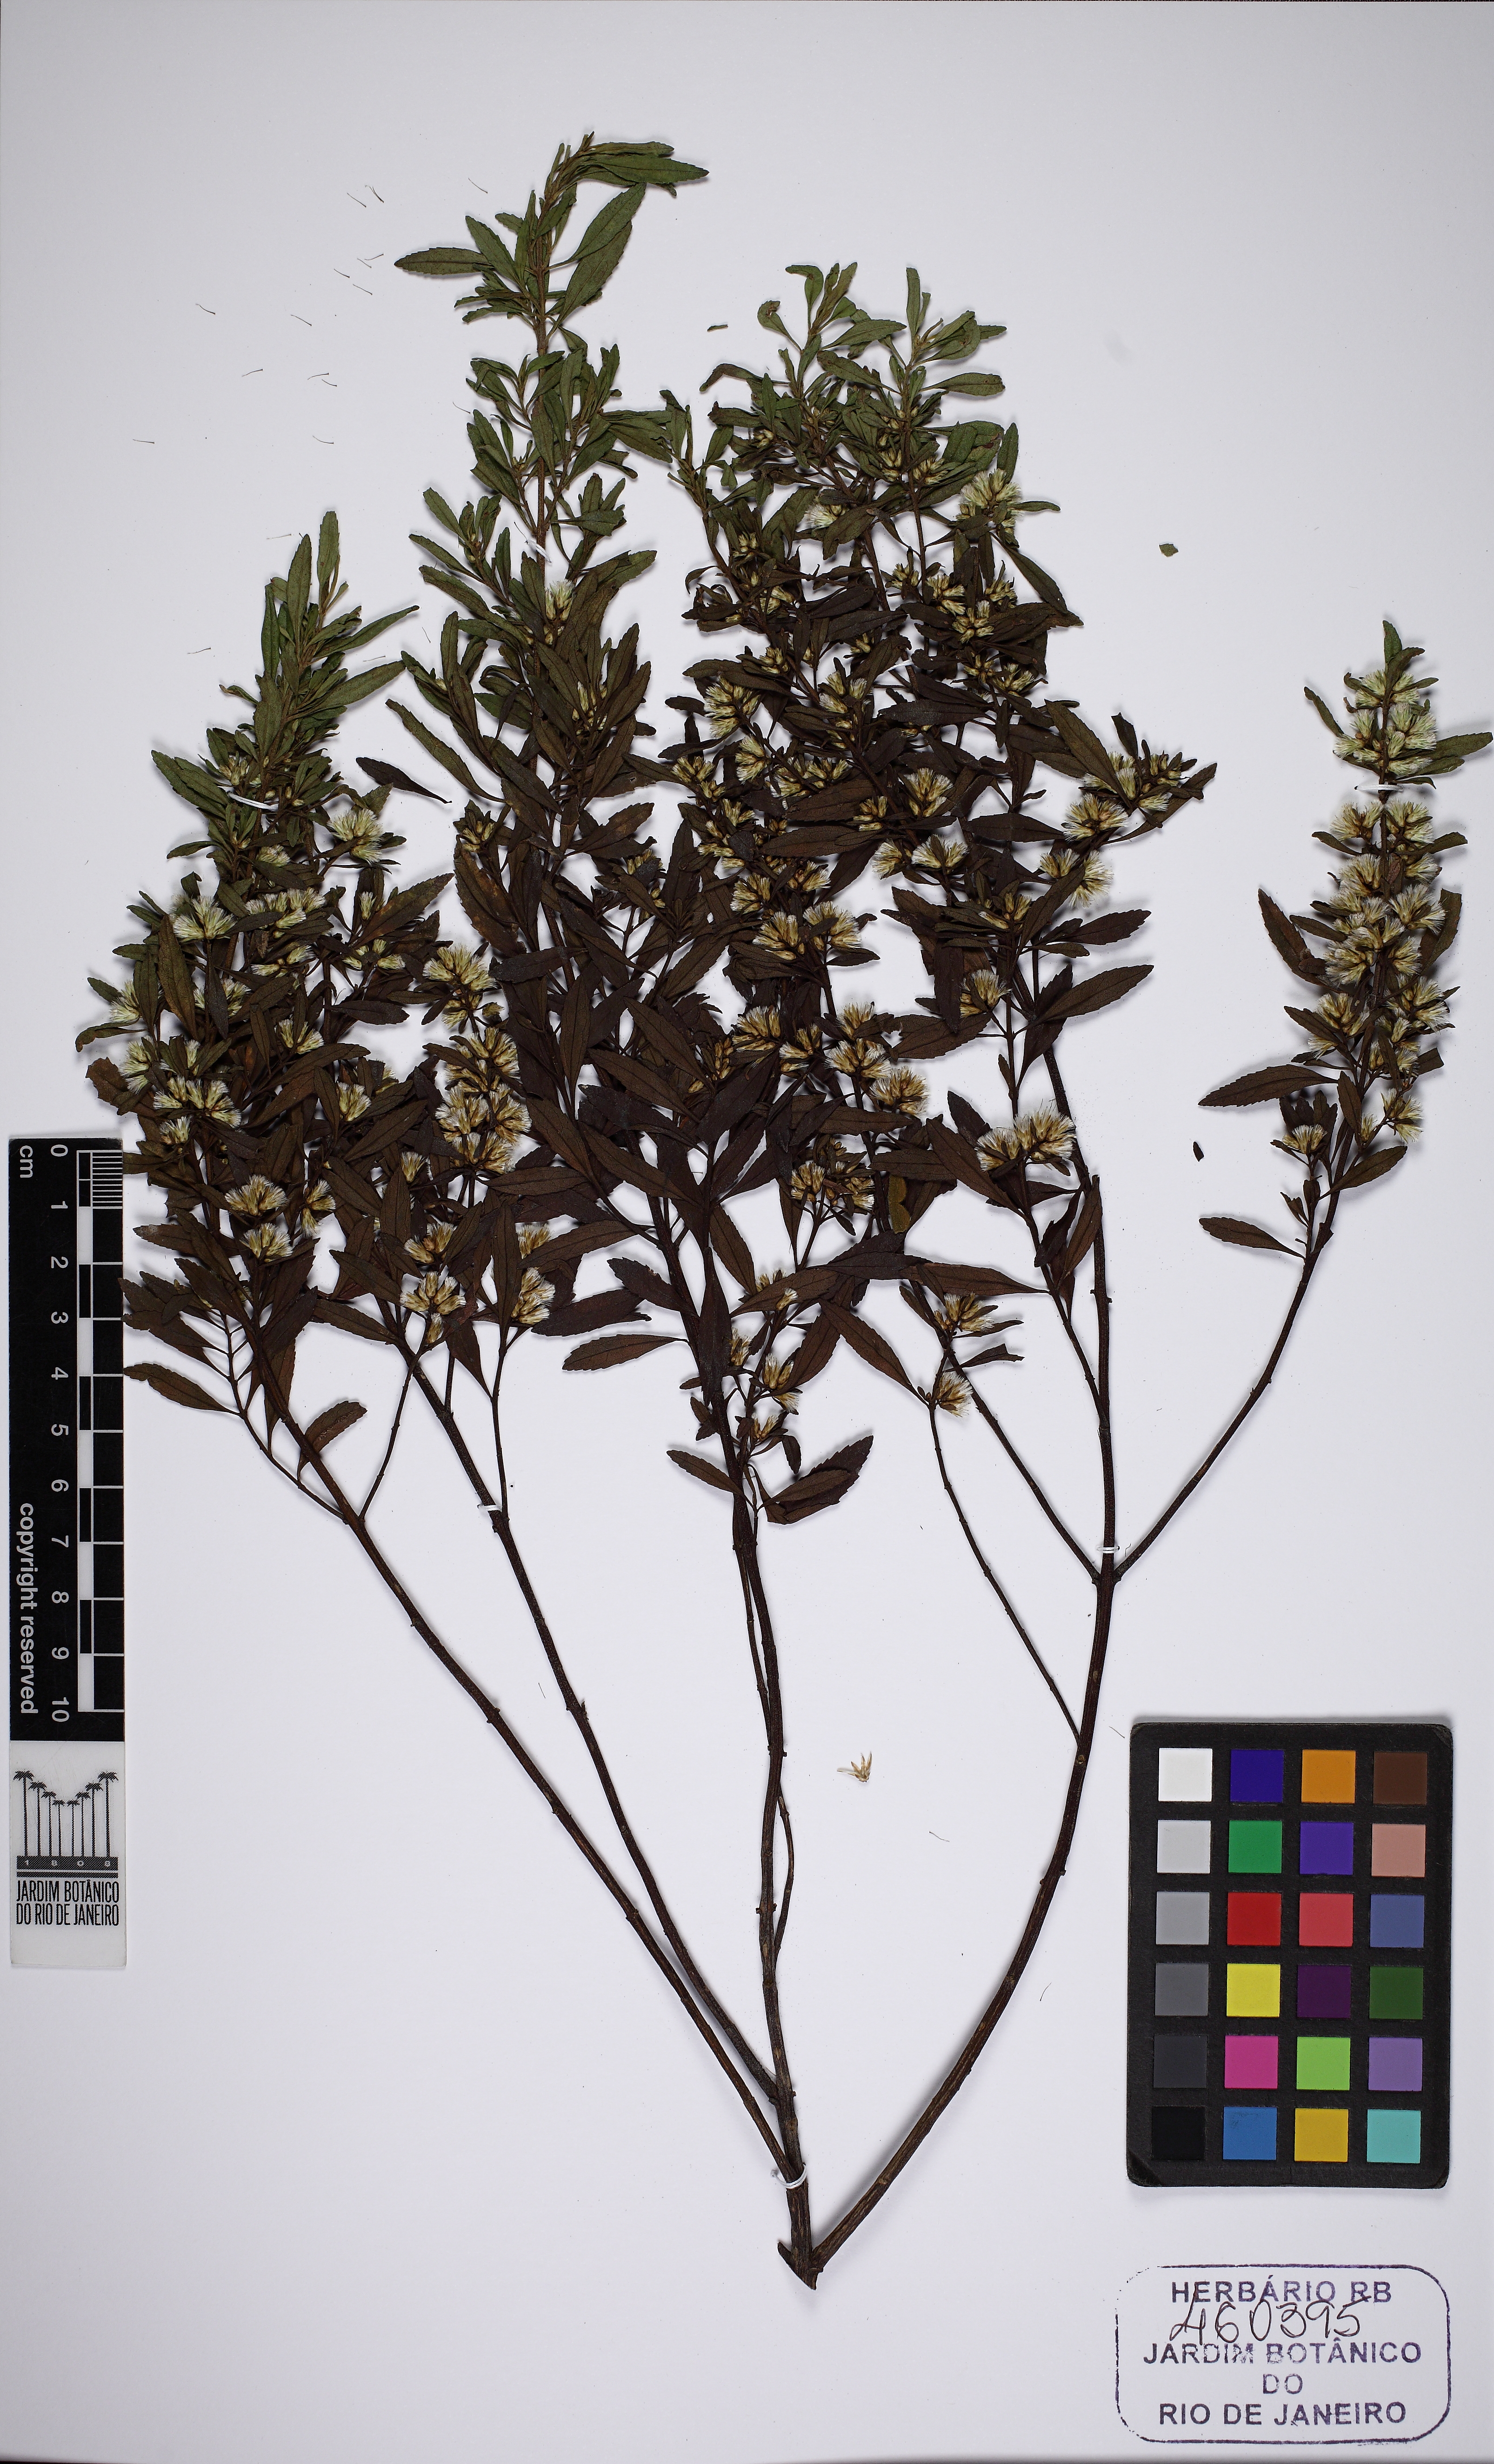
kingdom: Plantae
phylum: Tracheophyta
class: Magnoliopsida
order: Asterales
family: Asteraceae
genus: Baccharis
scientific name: Baccharis microdonta
